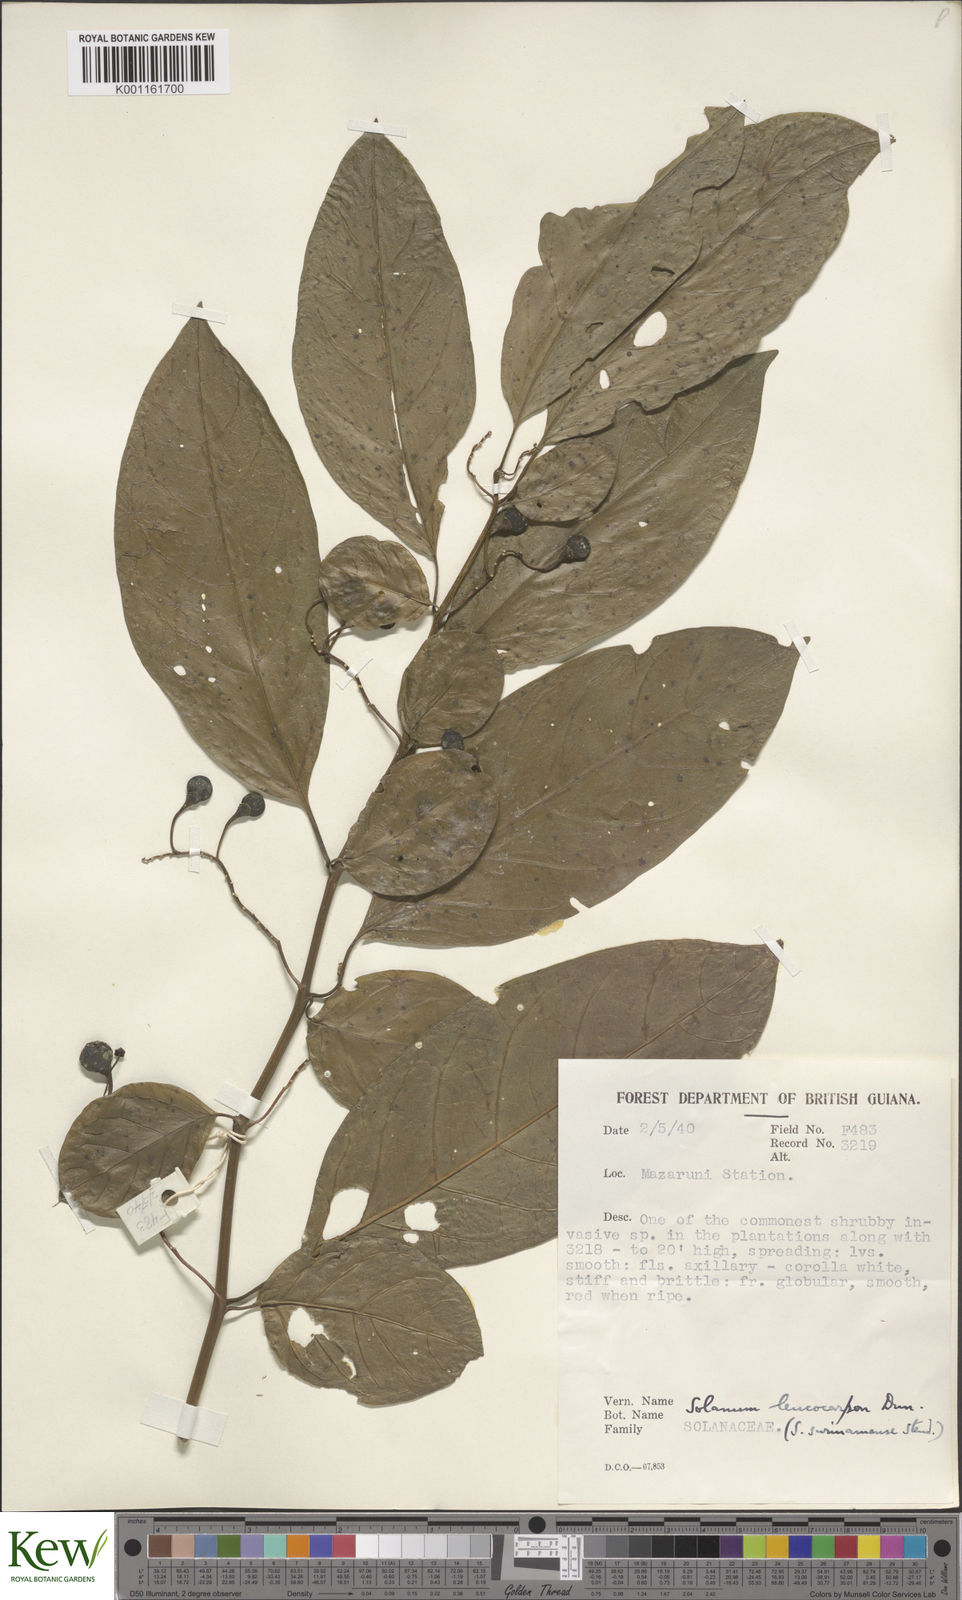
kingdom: Plantae
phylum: Tracheophyta
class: Magnoliopsida
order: Solanales
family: Solanaceae
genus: Solanum
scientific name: Solanum leucocarpon
